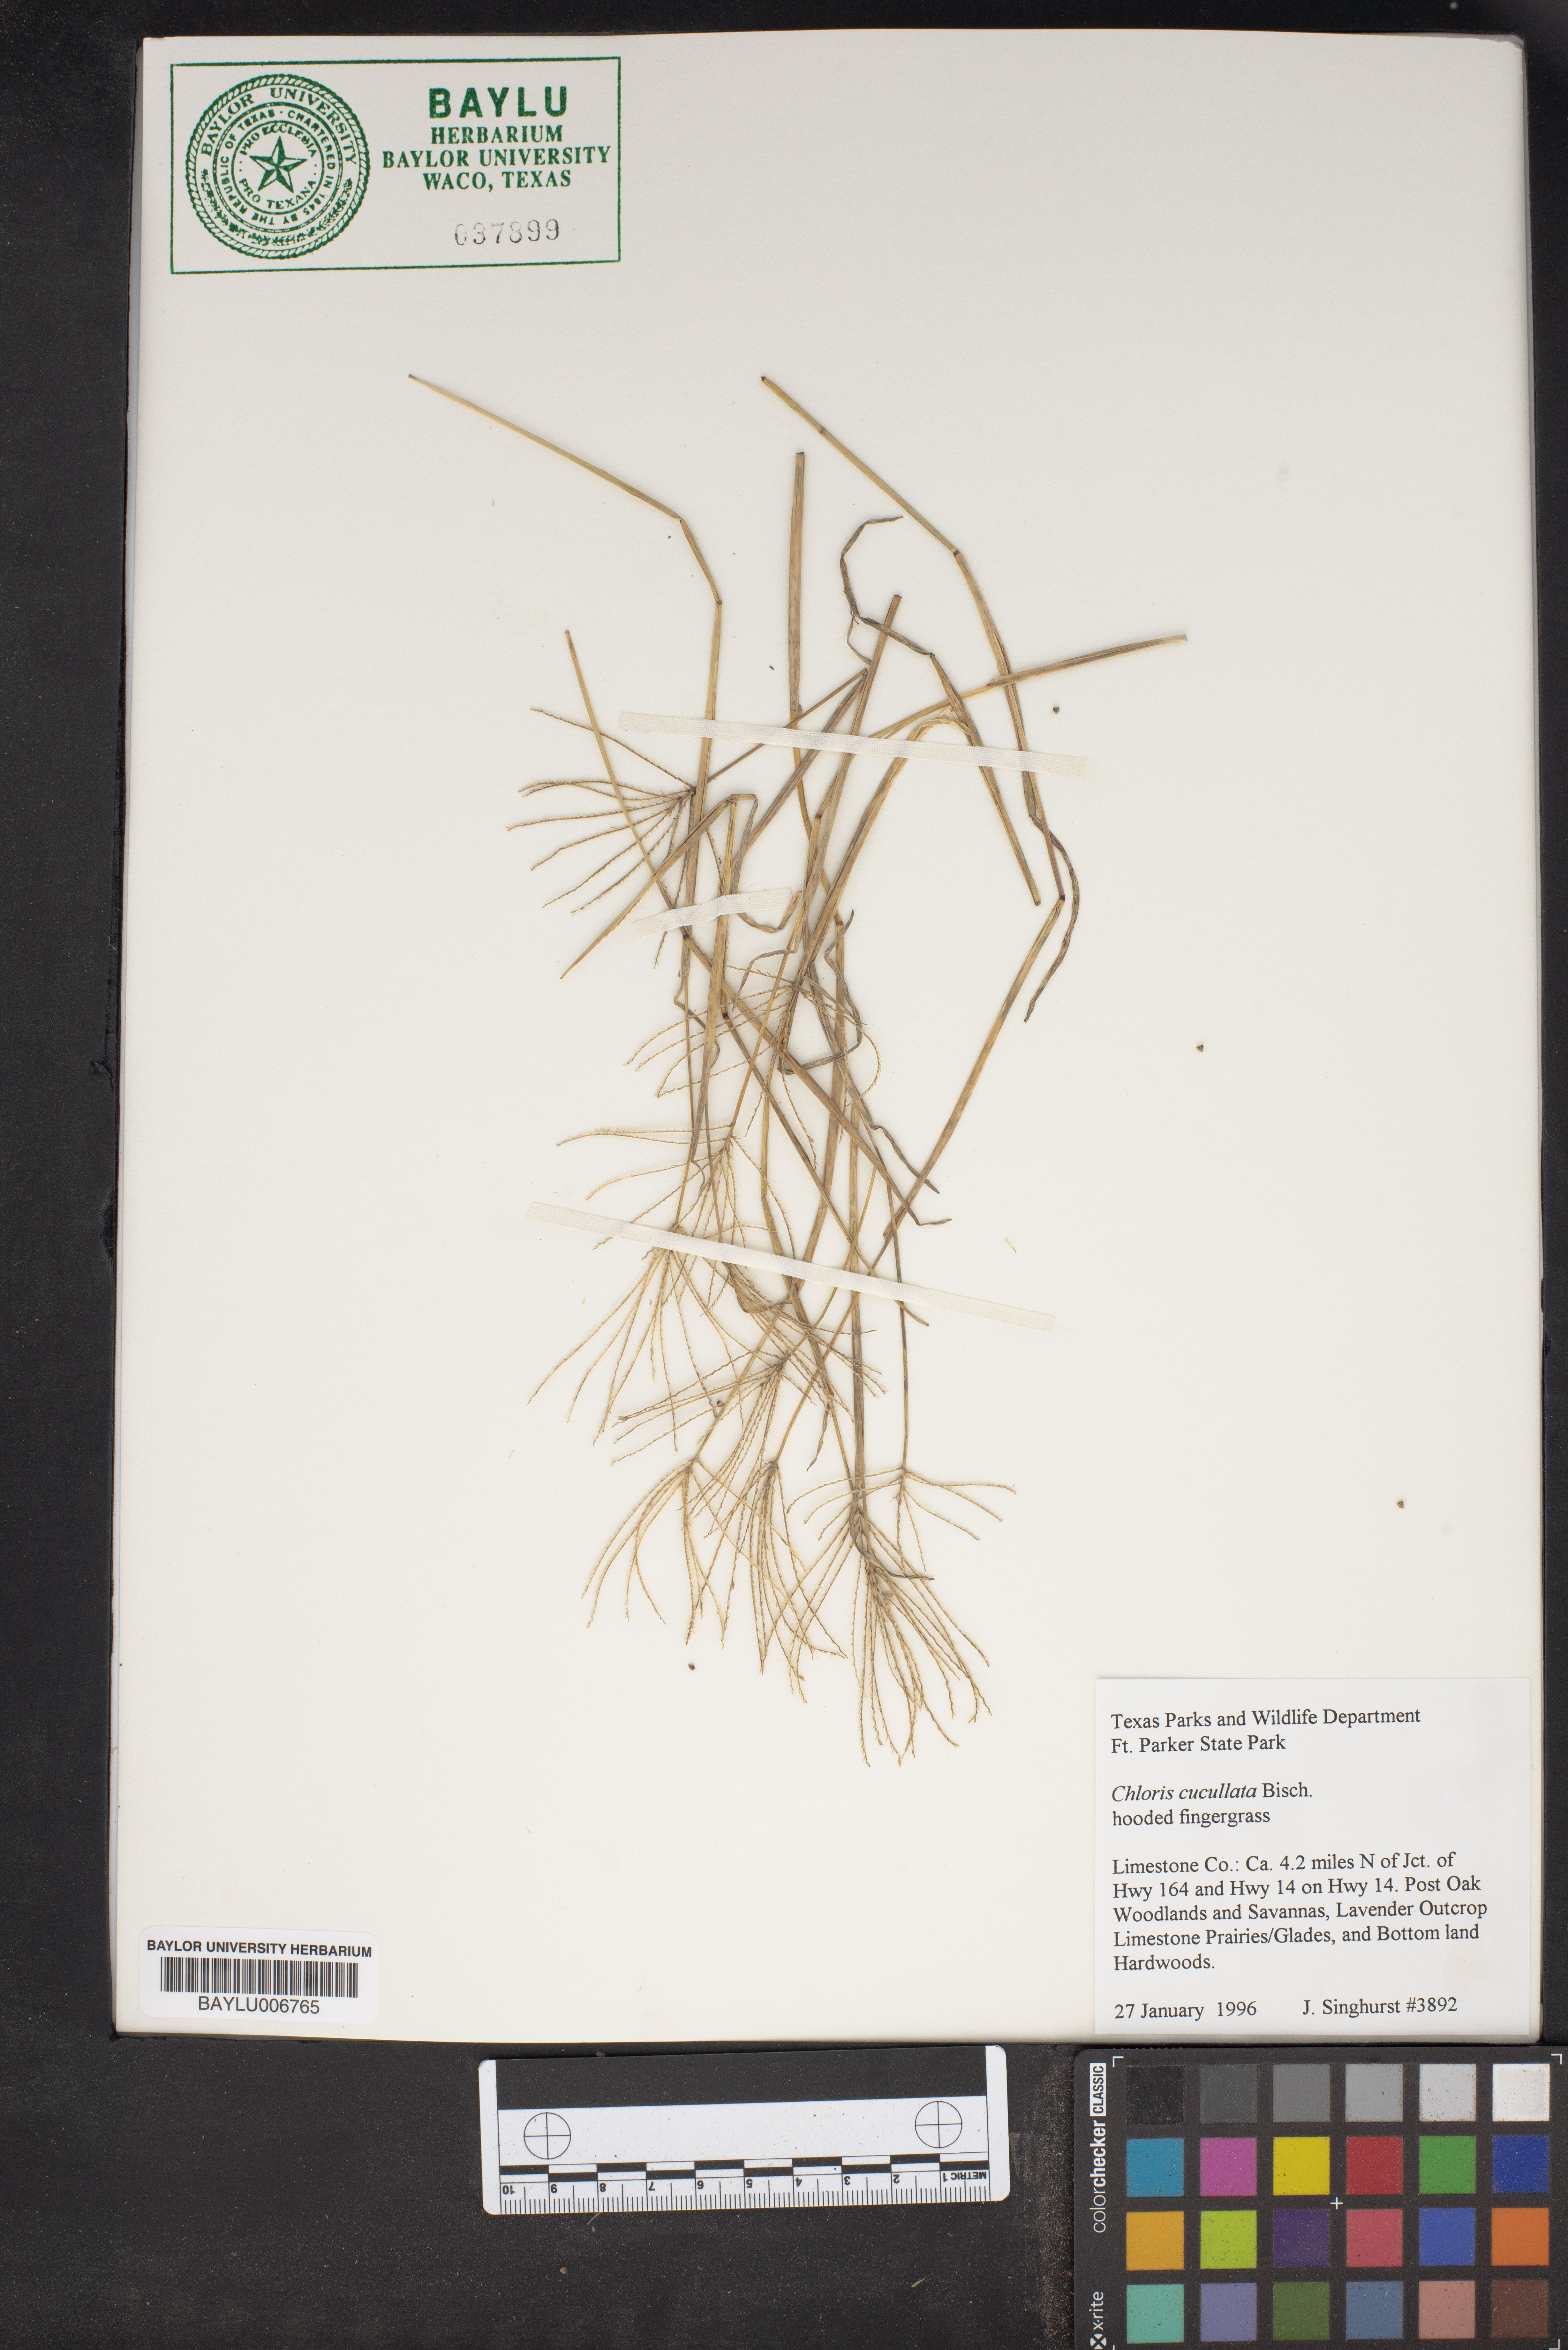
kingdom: Plantae
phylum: Tracheophyta
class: Liliopsida
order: Poales
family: Poaceae
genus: Chloris
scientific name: Chloris cucullata
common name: Hooded windmill grass
